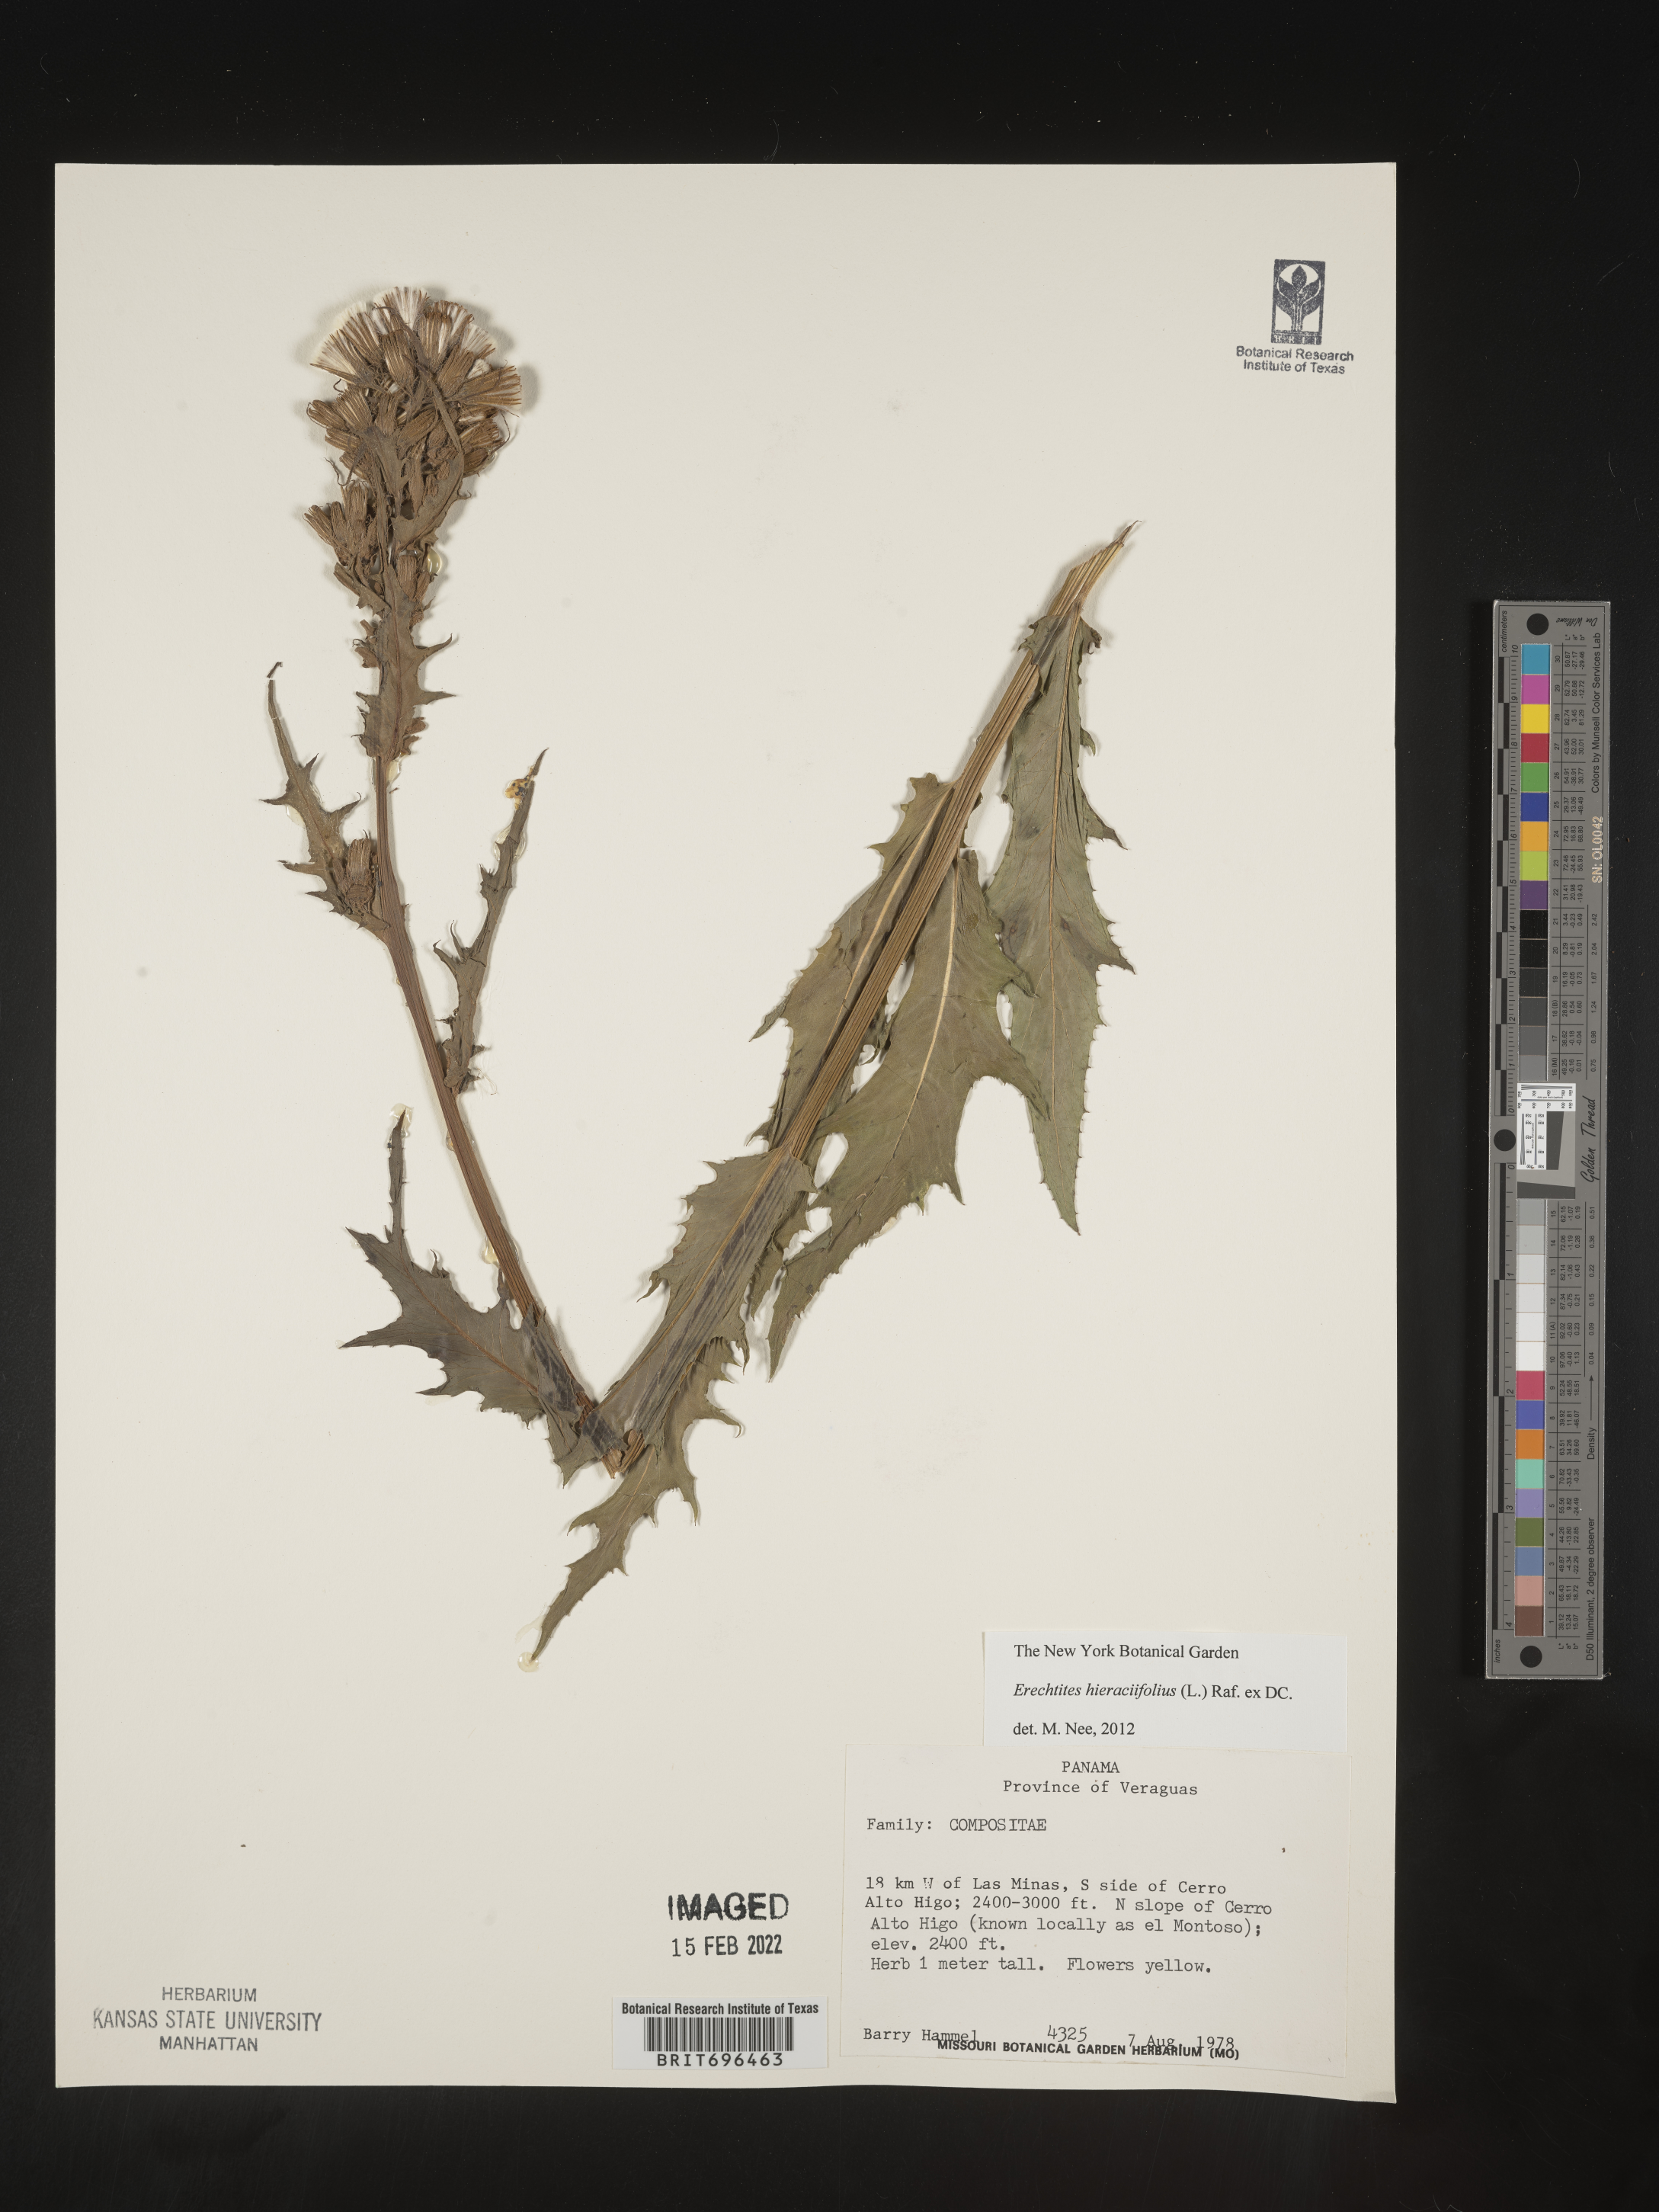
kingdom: Plantae
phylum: Tracheophyta
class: Magnoliopsida
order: Asterales
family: Asteraceae
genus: Erechtites
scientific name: Erechtites
